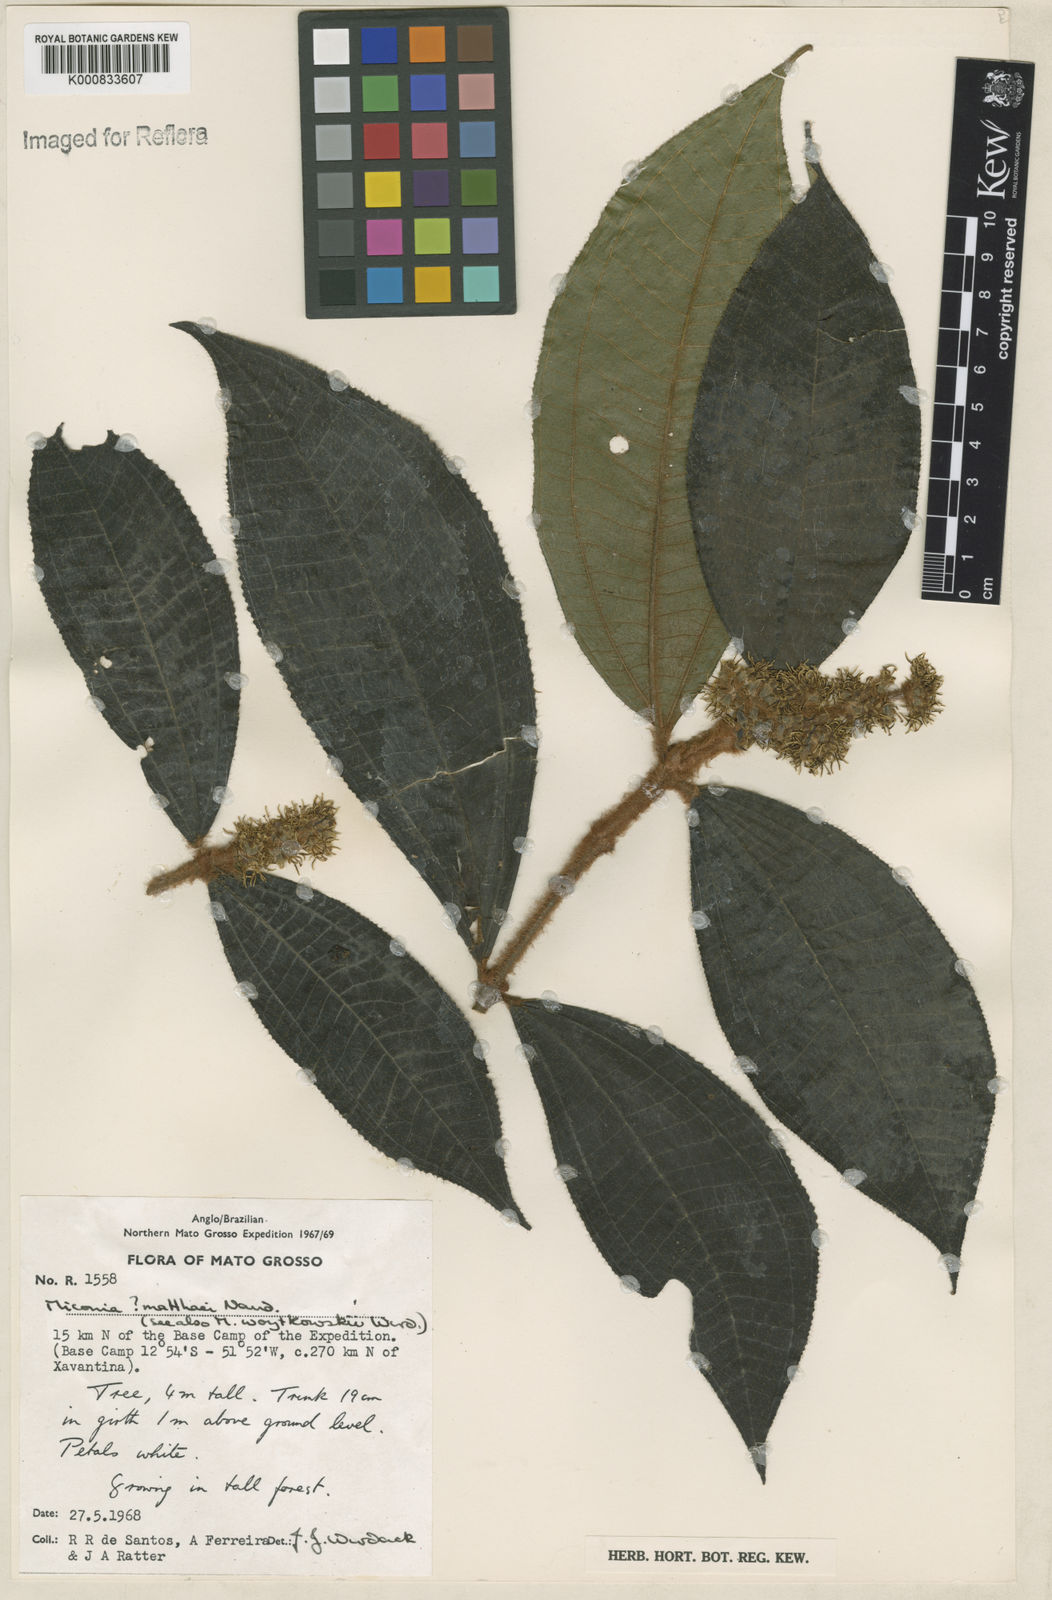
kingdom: Plantae
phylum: Tracheophyta
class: Magnoliopsida
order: Myrtales
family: Melastomataceae
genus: Miconia
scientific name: Miconia matthaei
